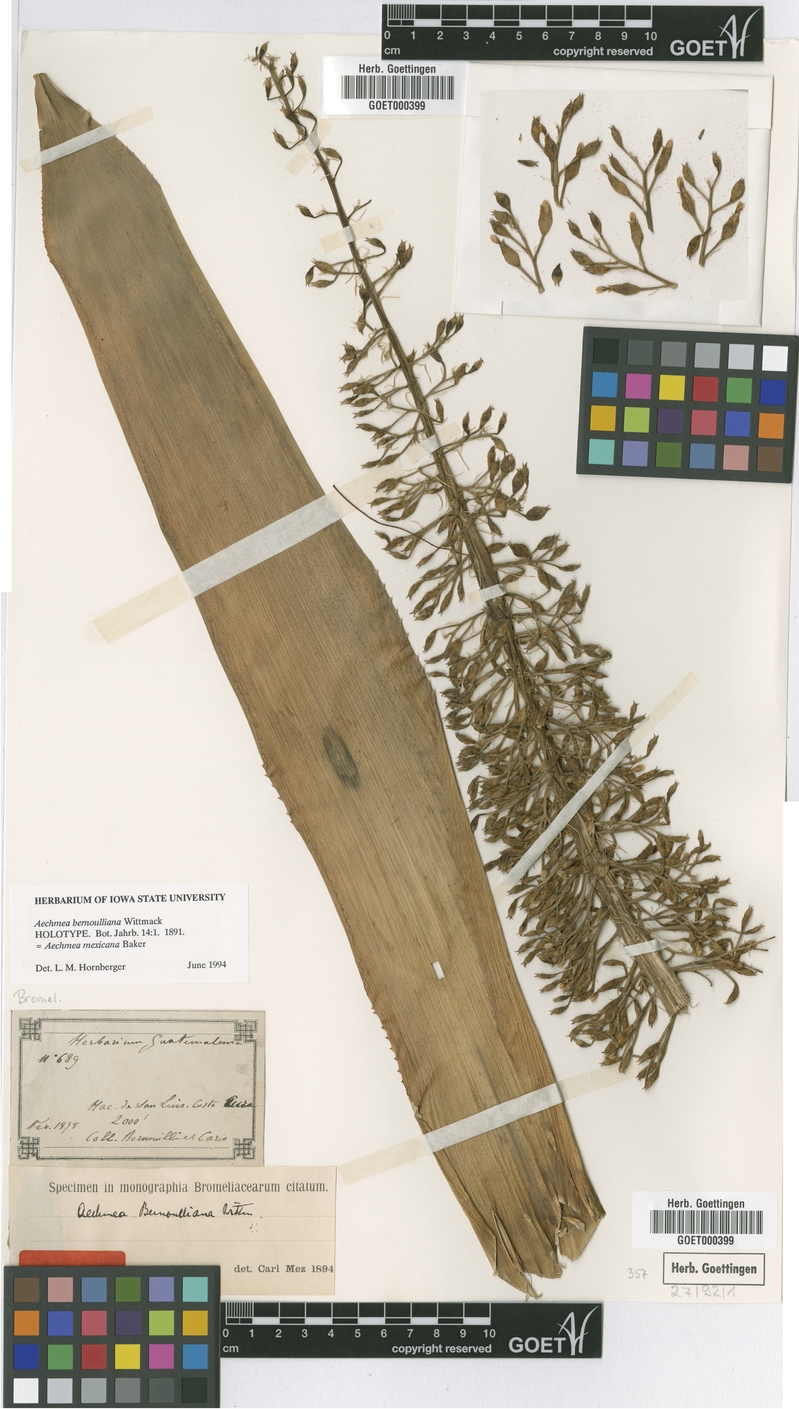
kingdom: Plantae
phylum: Tracheophyta
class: Liliopsida
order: Poales
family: Bromeliaceae
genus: Aechmea
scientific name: Aechmea mexicana
